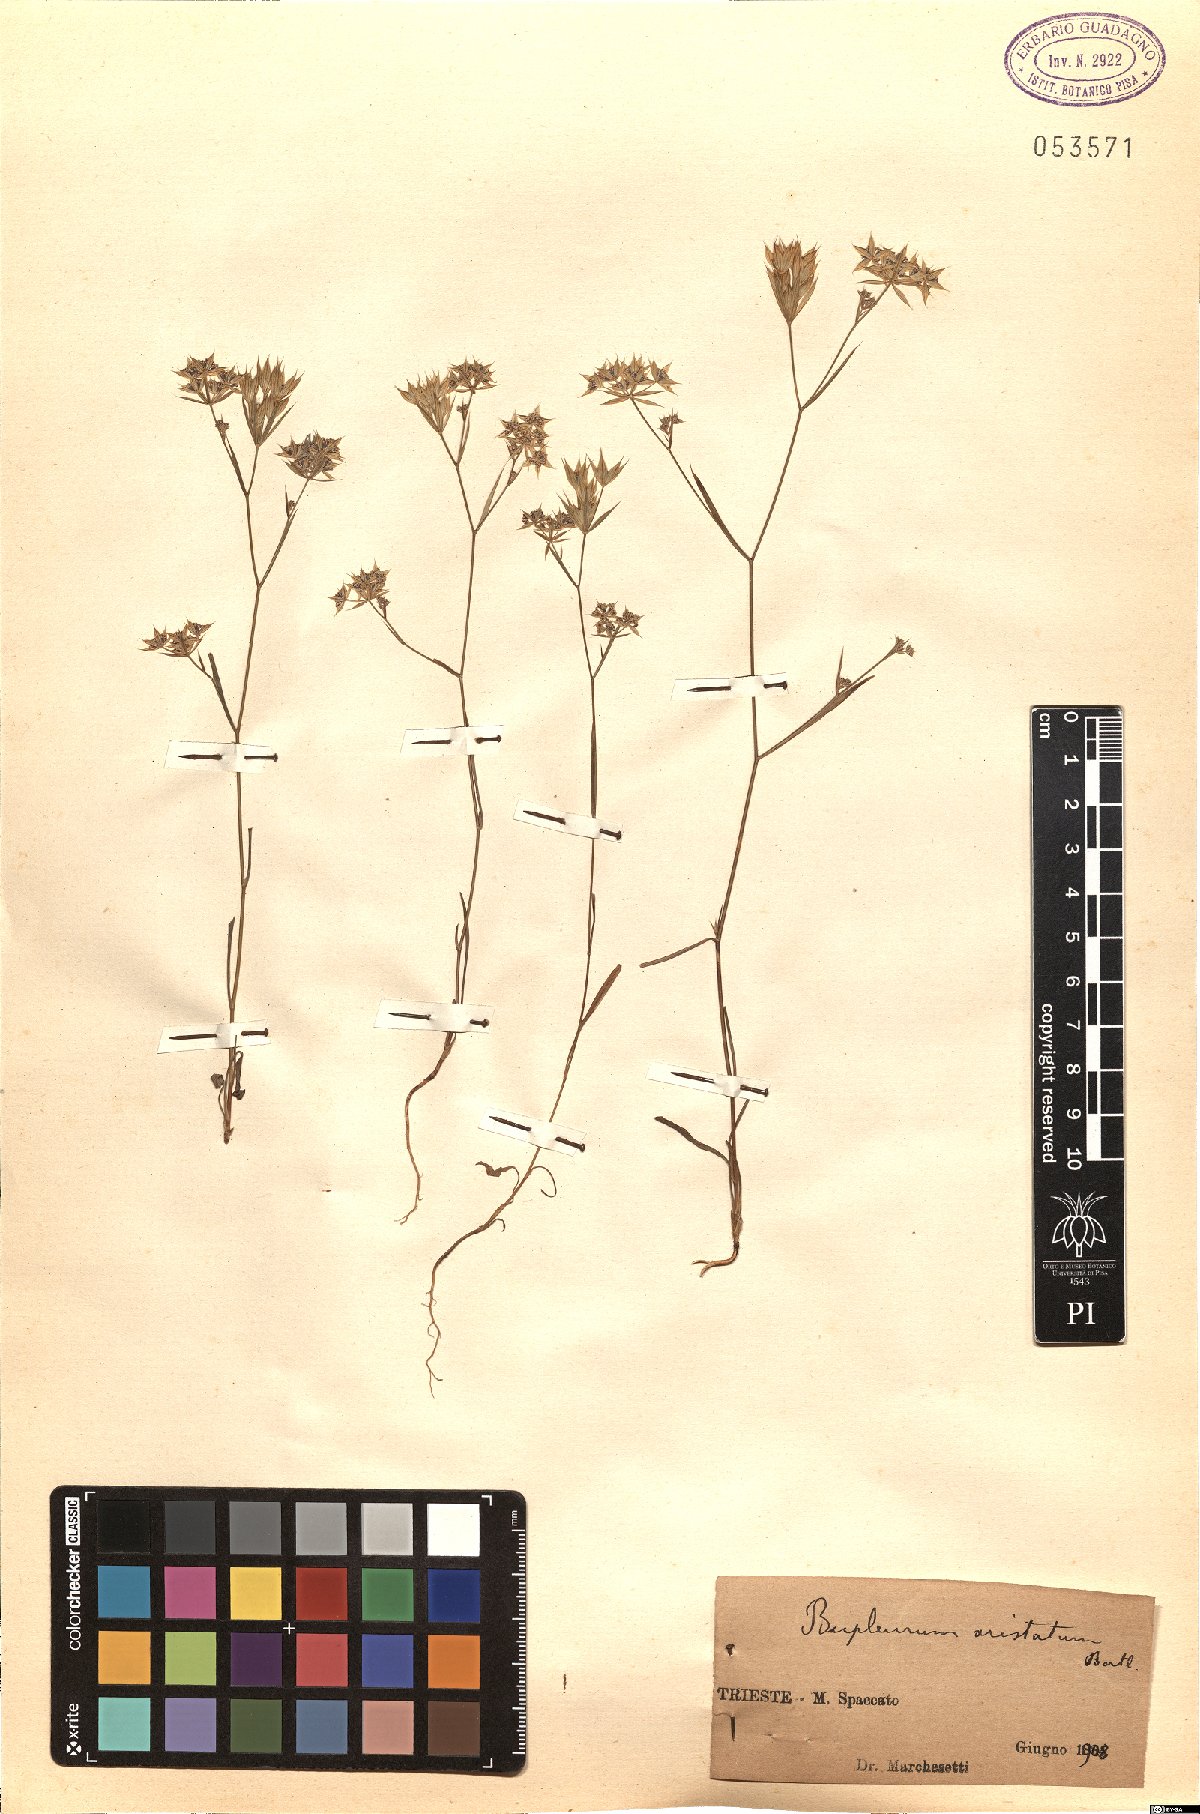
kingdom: Plantae
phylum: Tracheophyta
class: Magnoliopsida
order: Apiales
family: Apiaceae
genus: Bupleurum
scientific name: Bupleurum aristatum
